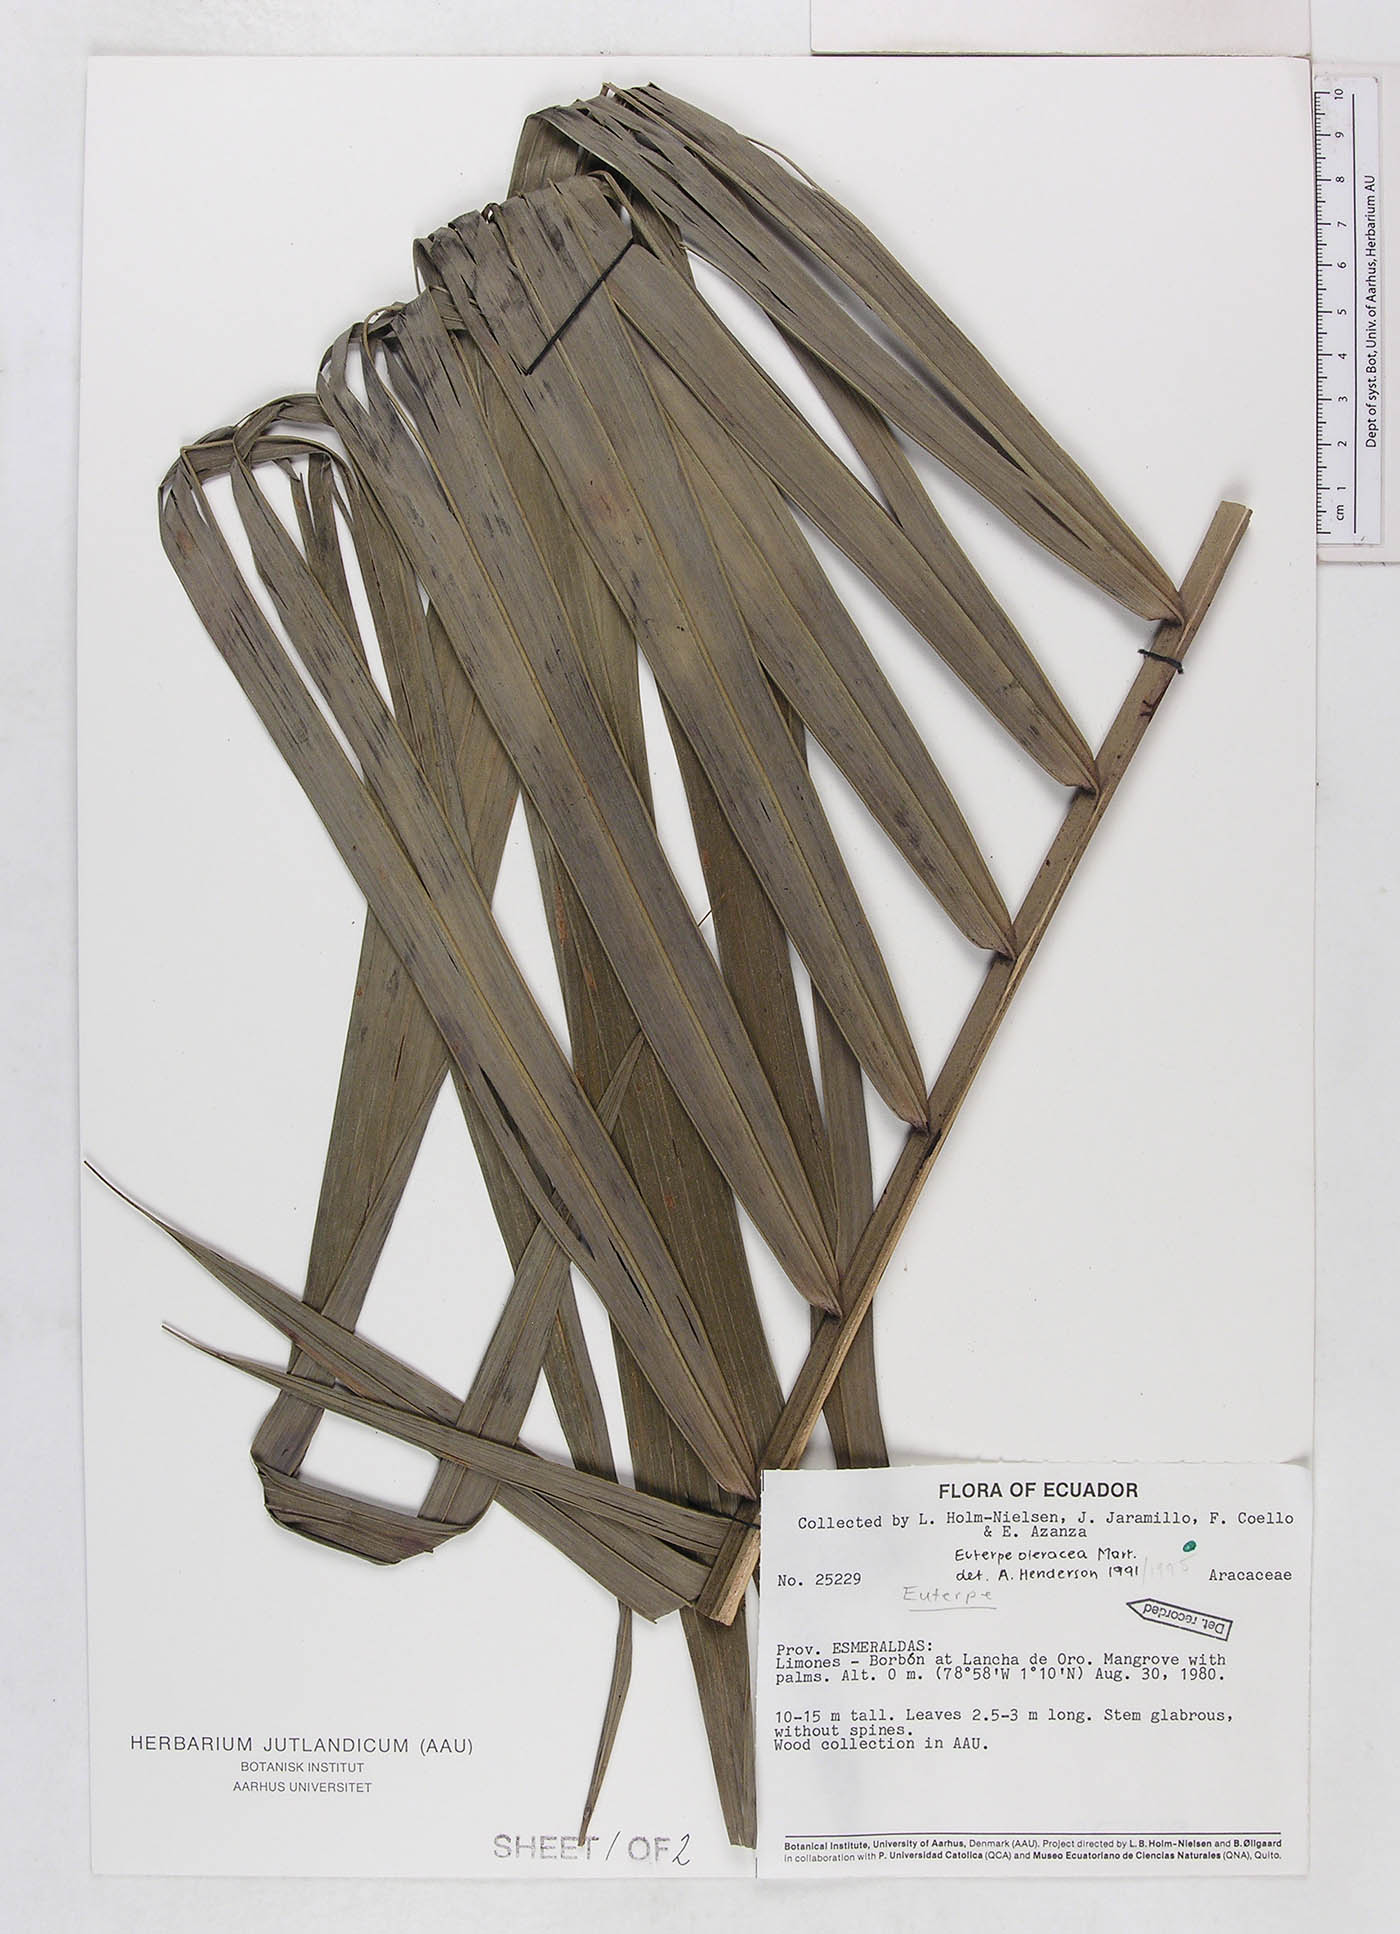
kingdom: Plantae
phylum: Tracheophyta
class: Liliopsida
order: Arecales
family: Arecaceae
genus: Euterpe
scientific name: Euterpe oleracea
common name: Assai palm
